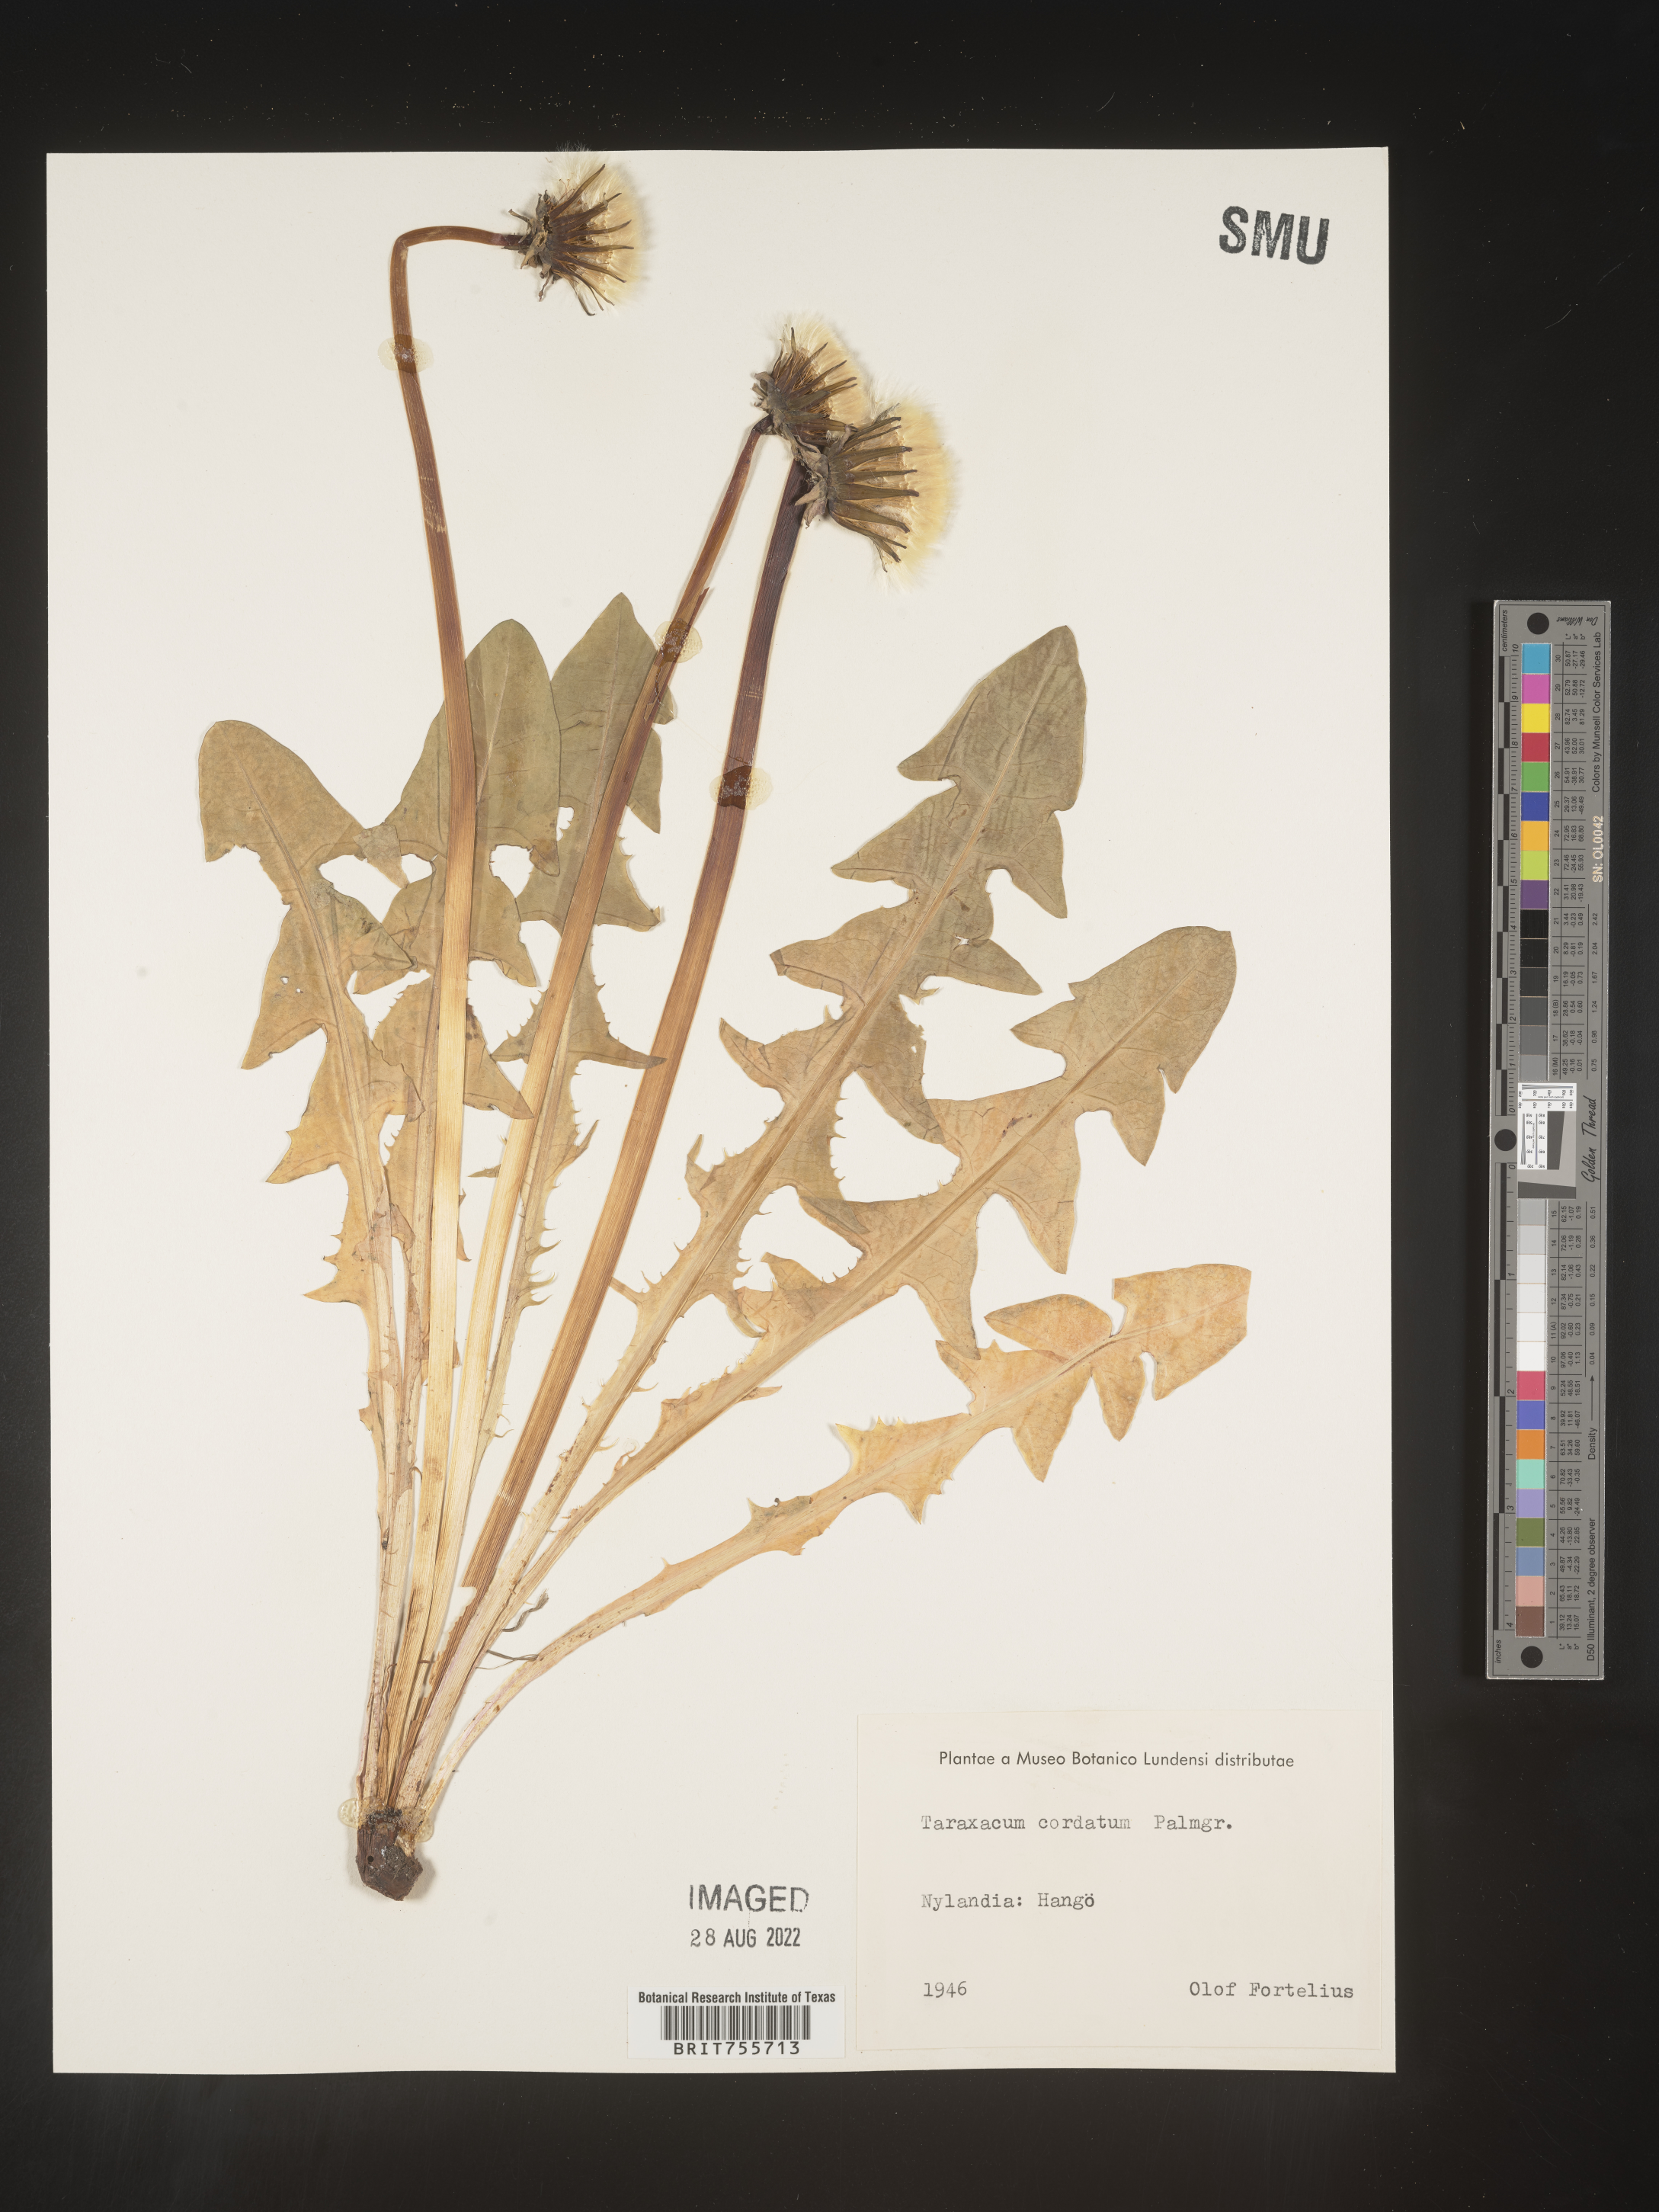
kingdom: Plantae
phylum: Tracheophyta
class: Magnoliopsida
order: Asterales
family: Asteraceae
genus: Taraxacum
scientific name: Taraxacum
